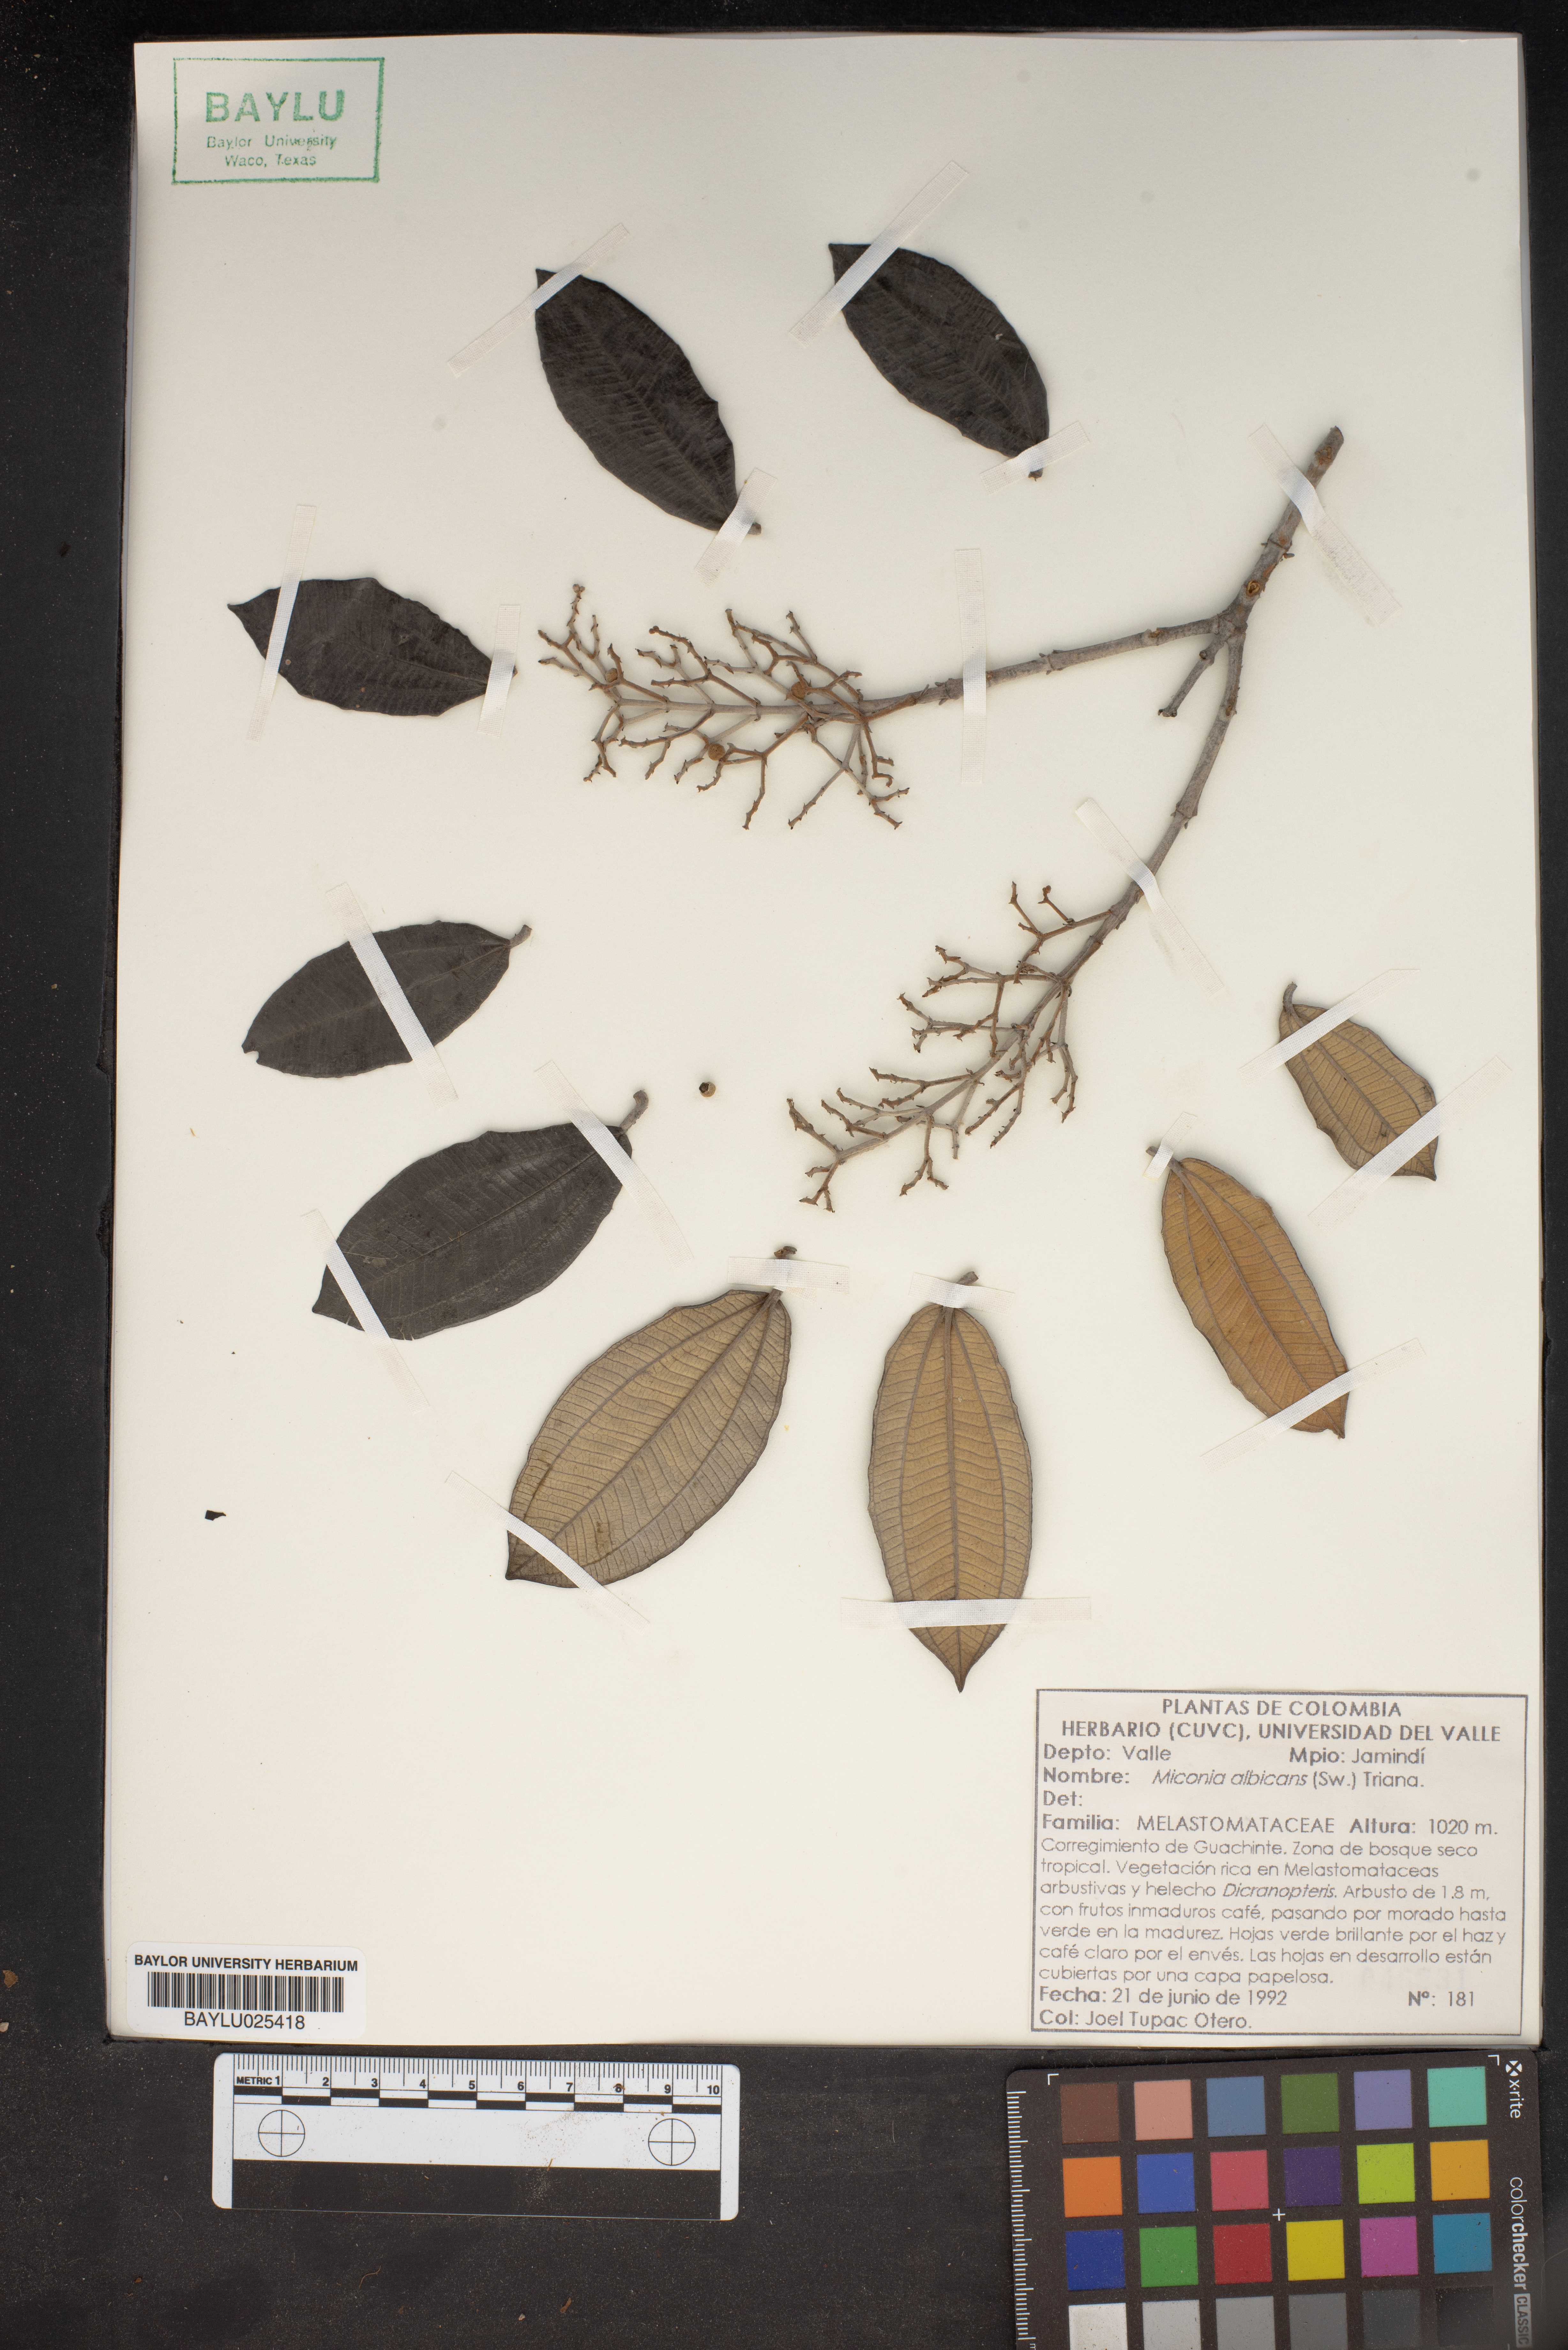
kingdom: Plantae
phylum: Tracheophyta
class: Magnoliopsida
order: Myrtales
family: Melastomataceae
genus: Miconia
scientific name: Miconia albicans
